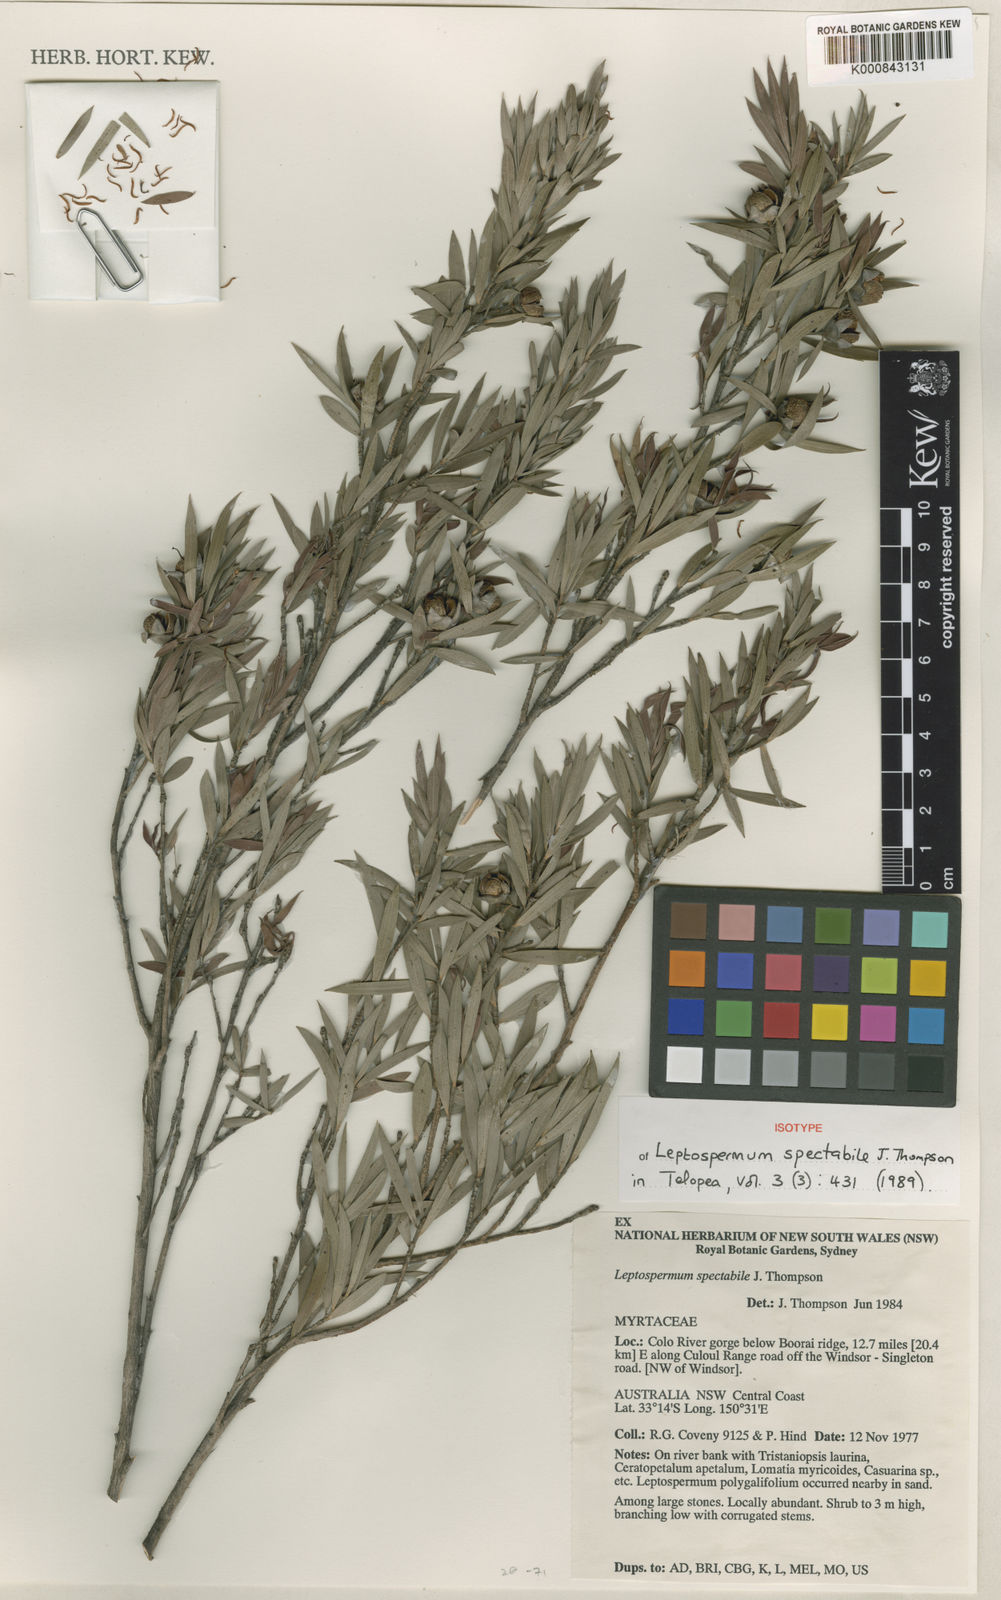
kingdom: Plantae
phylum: Tracheophyta
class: Magnoliopsida
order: Myrtales
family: Myrtaceae
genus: Leptospermum
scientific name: Leptospermum spectabile
